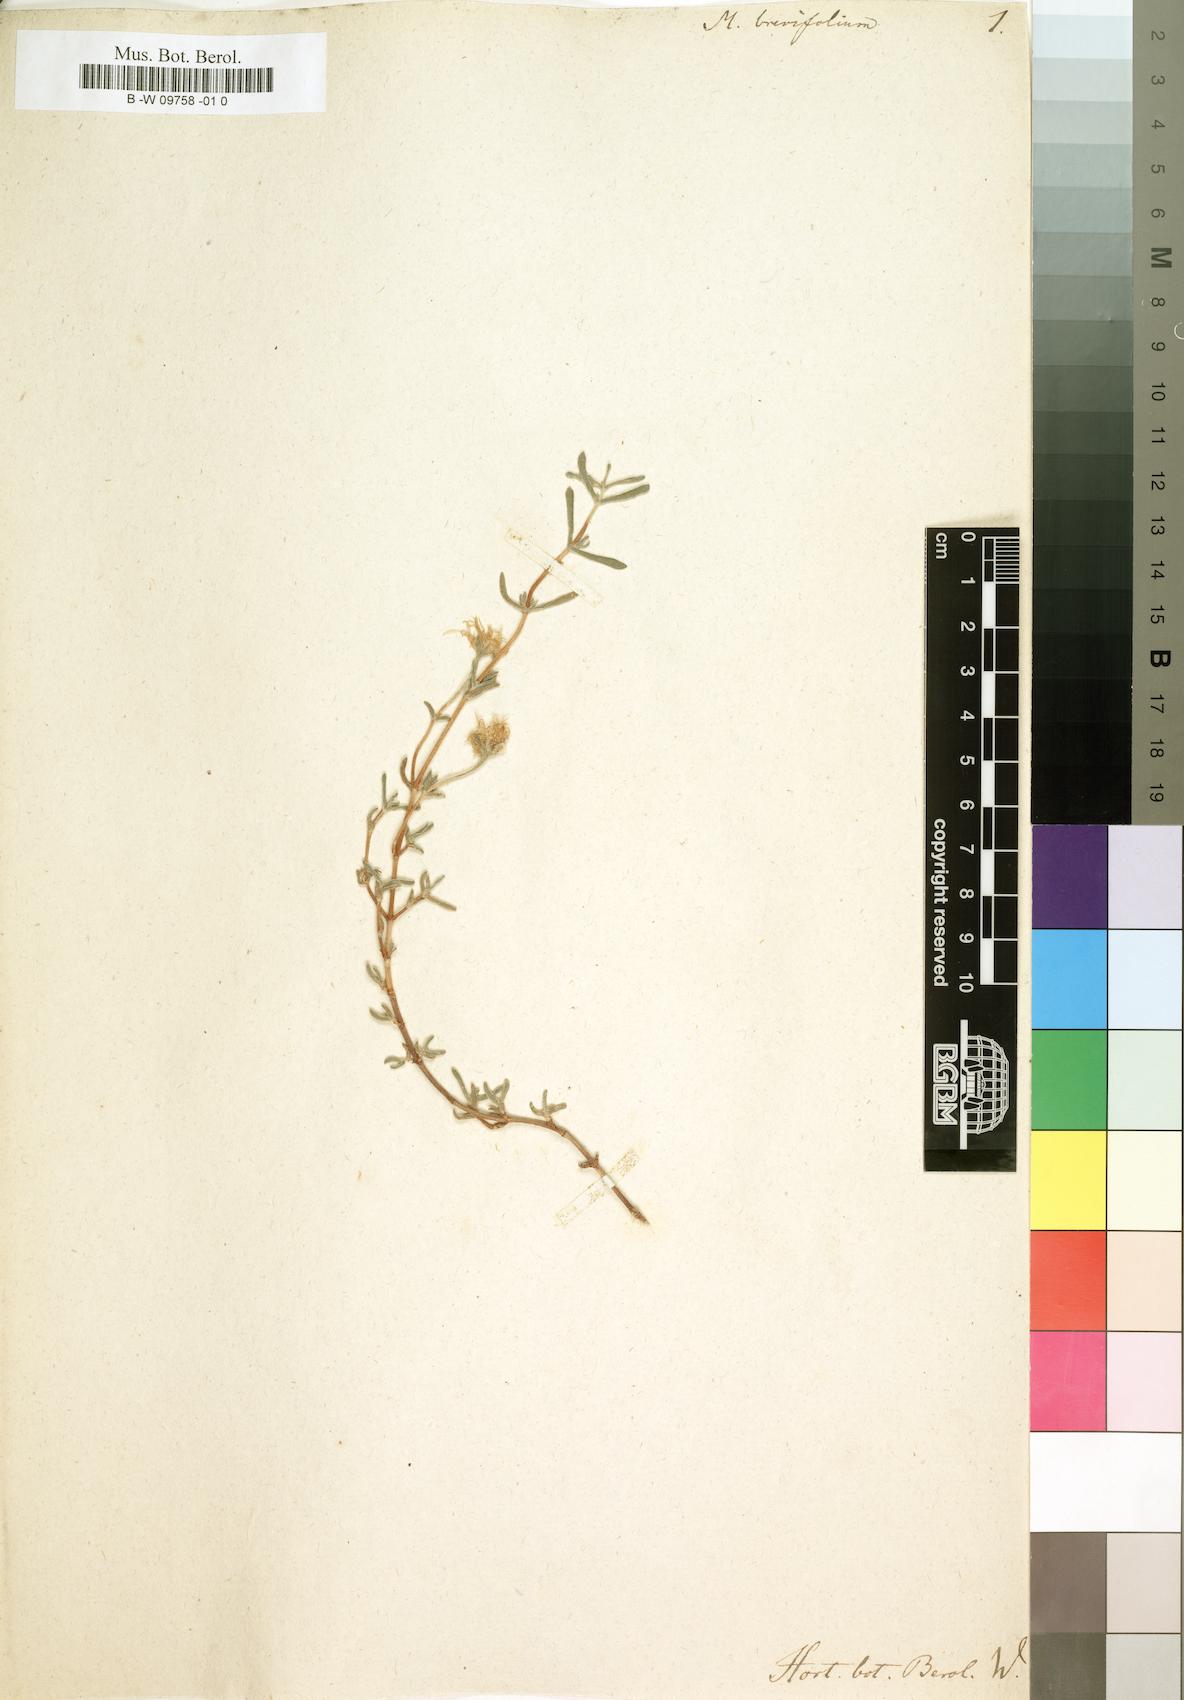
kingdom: Plantae
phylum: Tracheophyta
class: Magnoliopsida
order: Caryophyllales
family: Aizoaceae
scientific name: Aizoaceae
